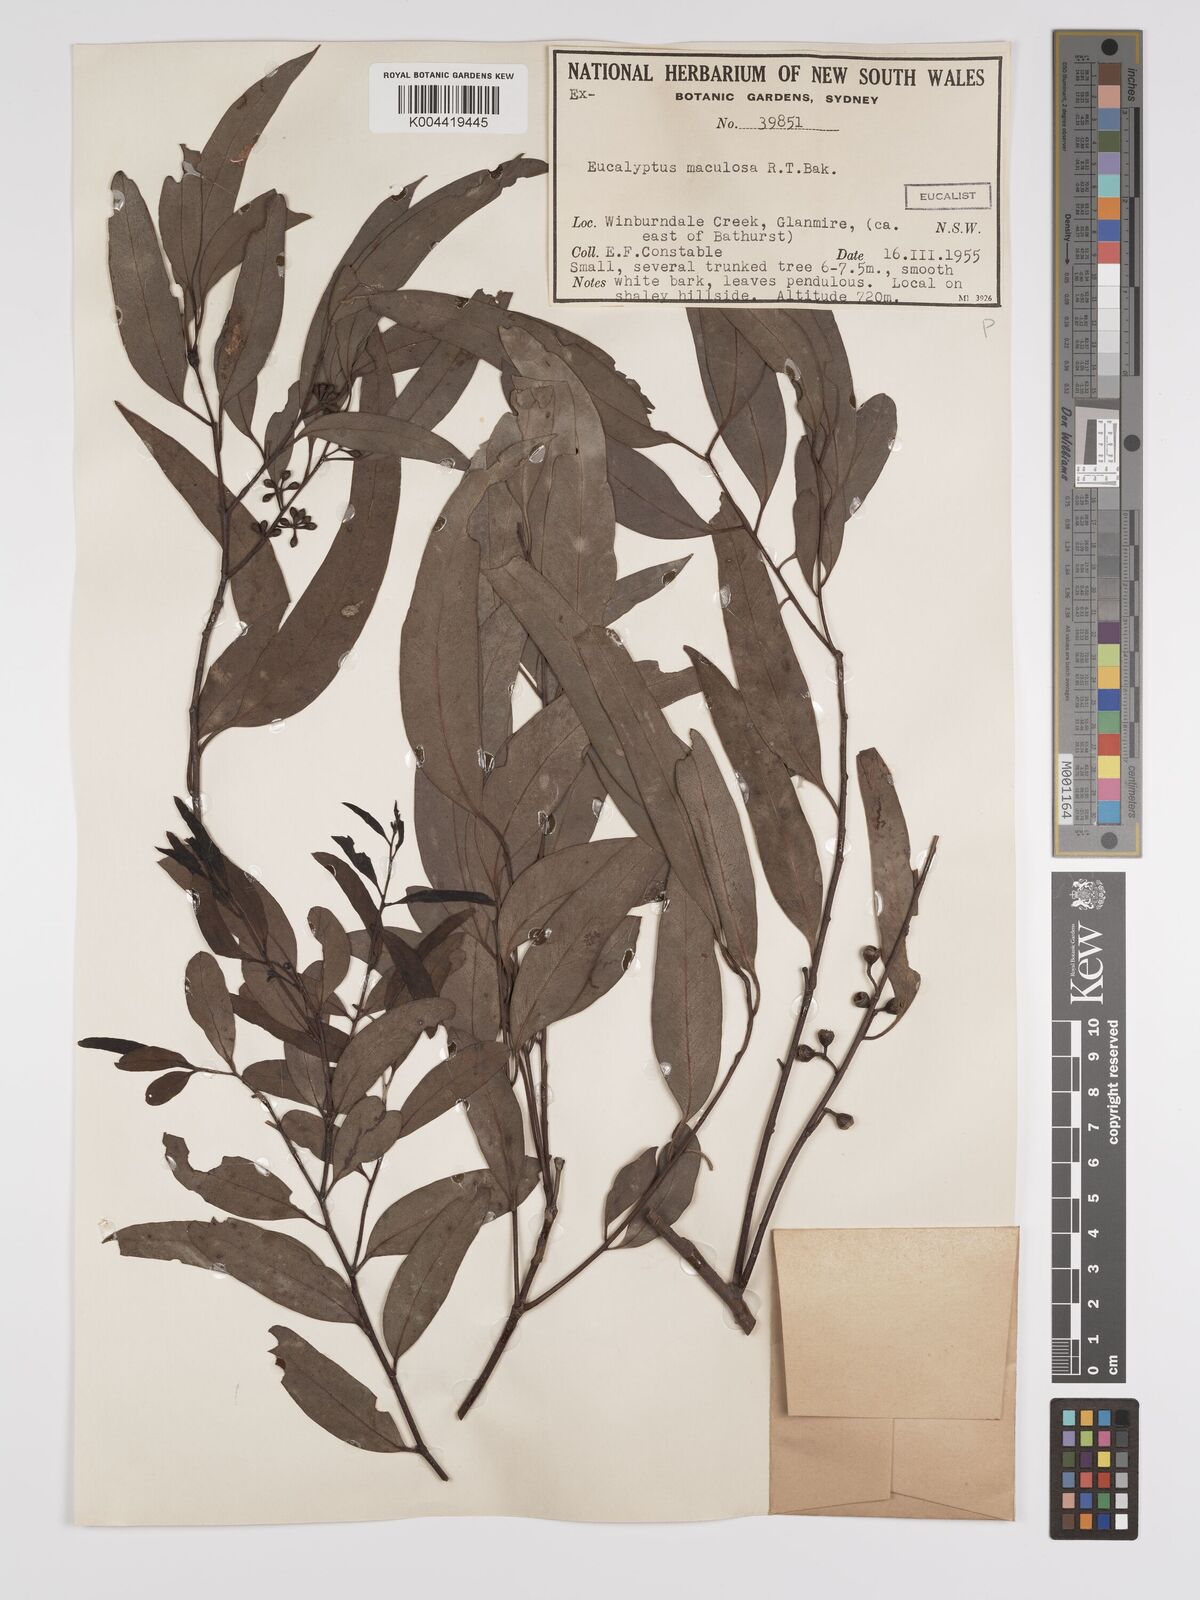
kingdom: Plantae
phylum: Tracheophyta
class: Magnoliopsida
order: Myrtales
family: Myrtaceae
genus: Eucalyptus
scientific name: Eucalyptus mannifera
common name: Manna gum
